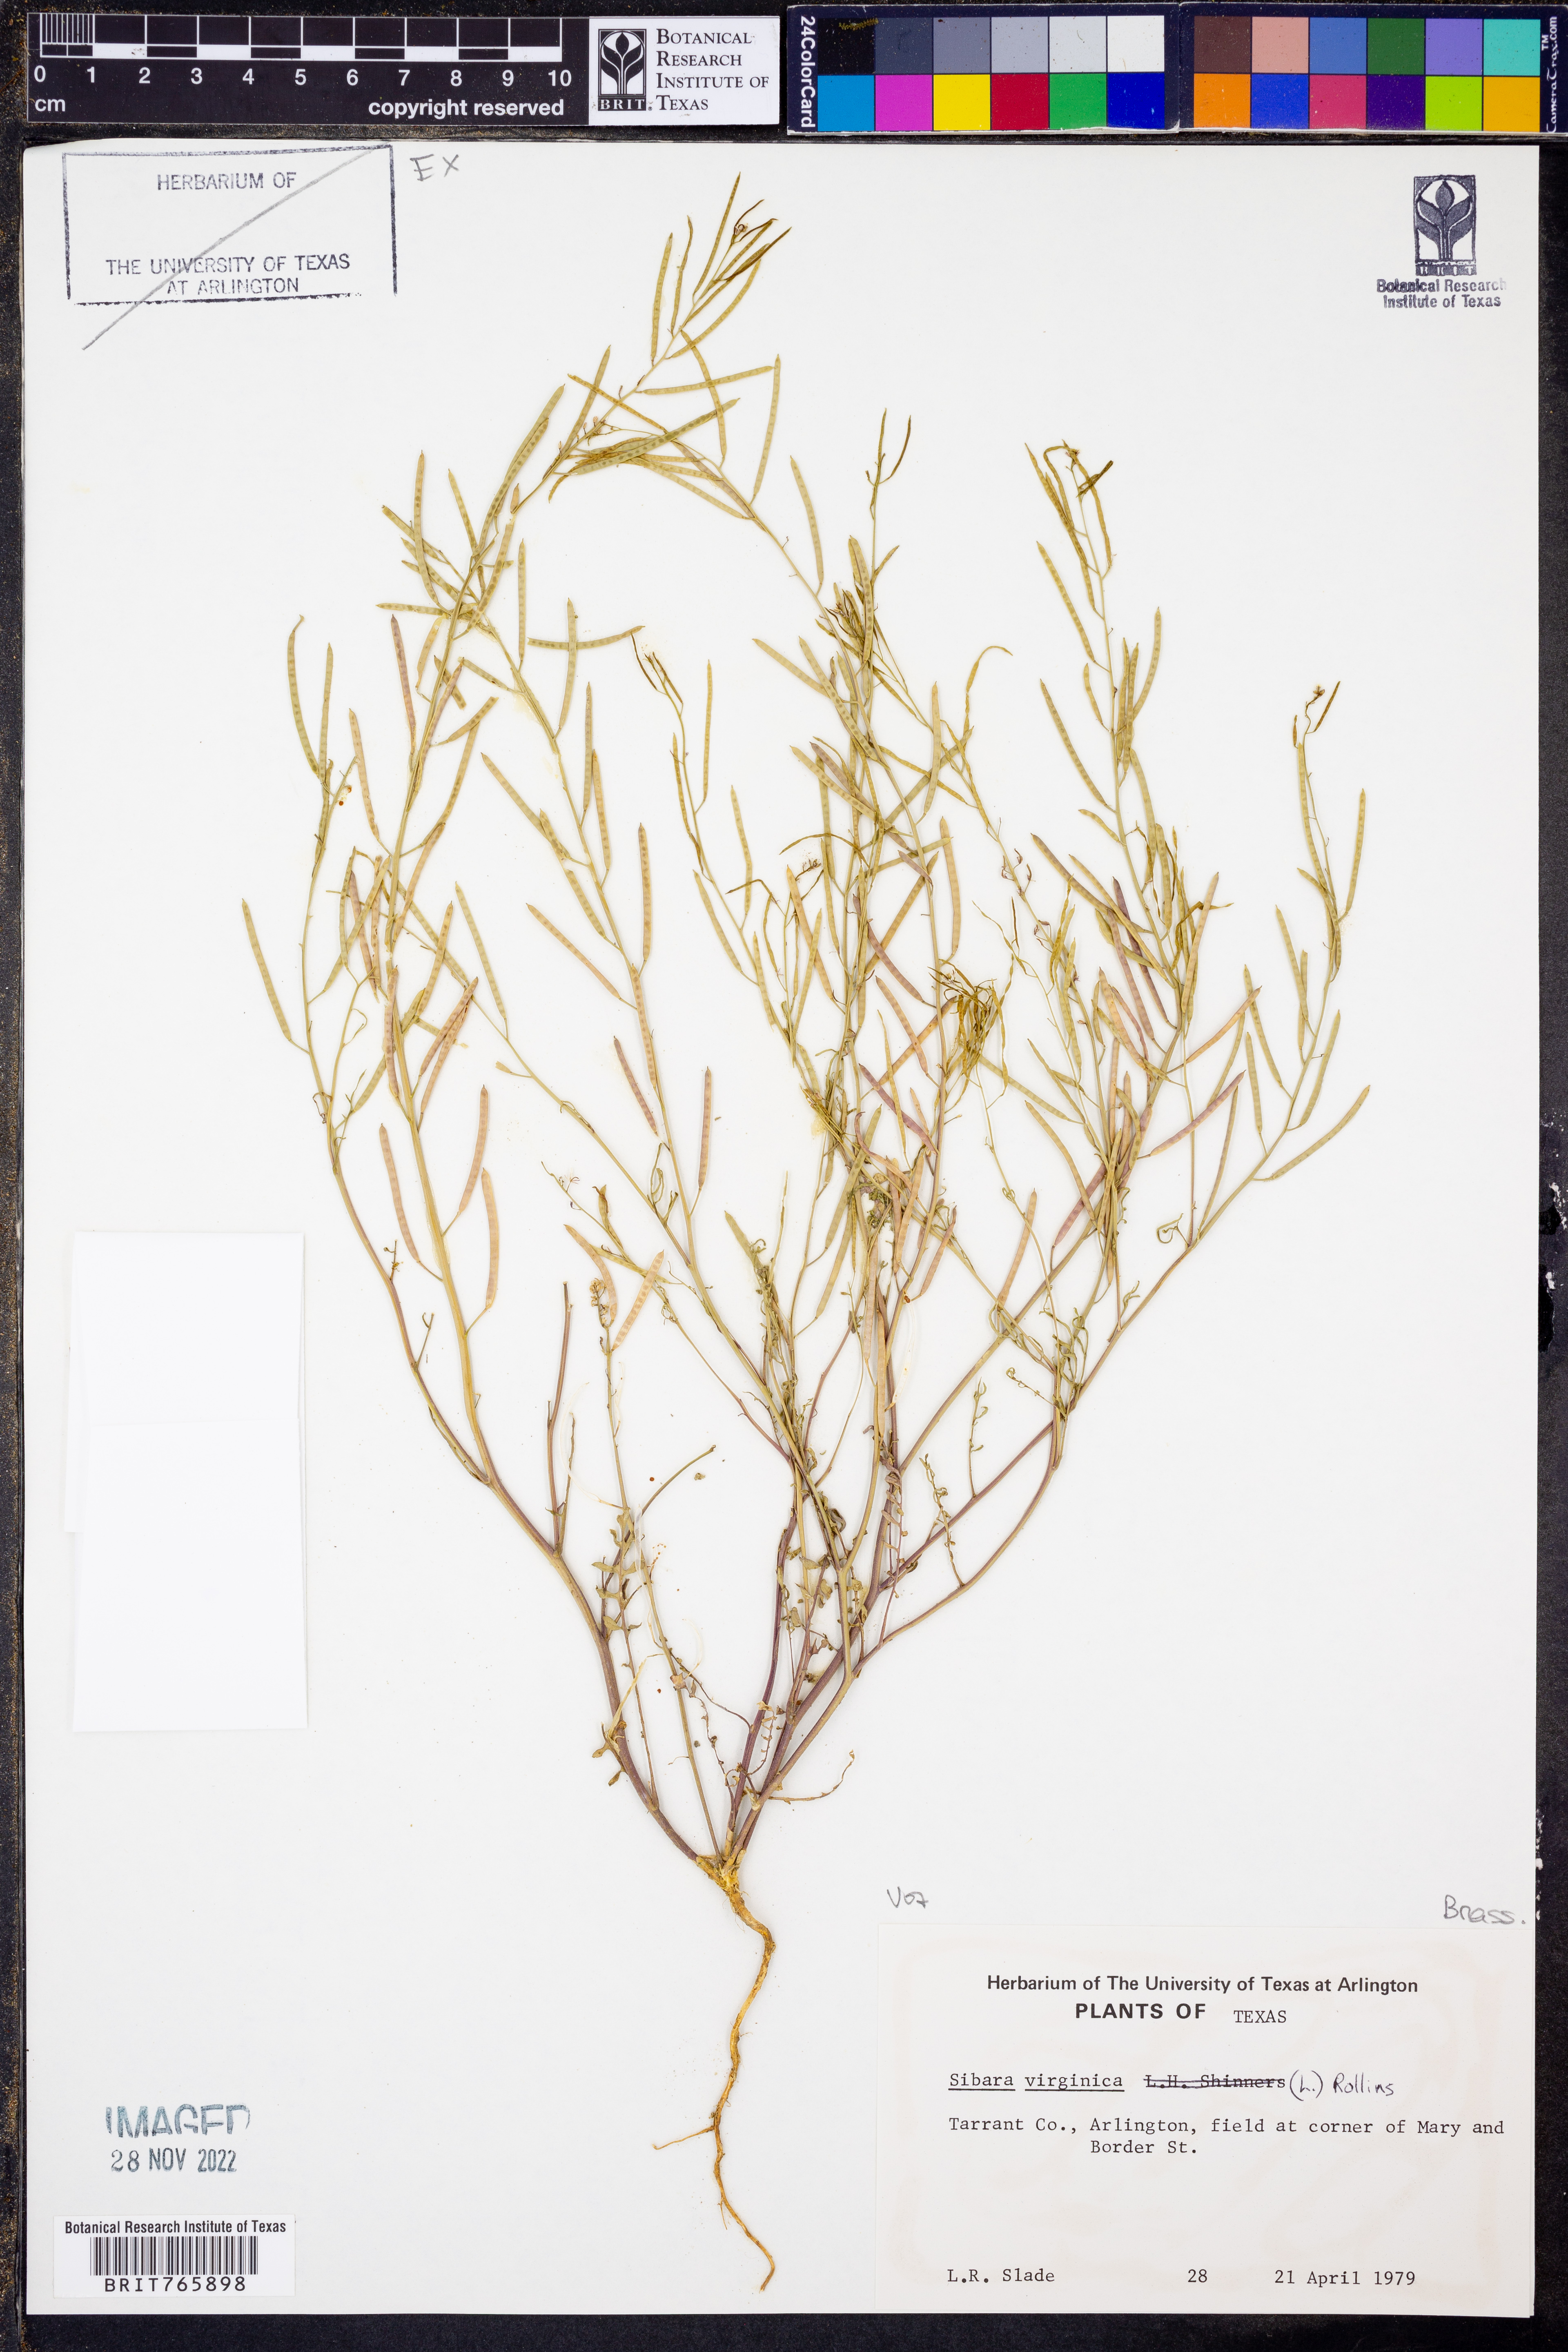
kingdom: Plantae
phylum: Tracheophyta
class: Magnoliopsida
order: Brassicales
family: Brassicaceae
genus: Planodes
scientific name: Planodes virginicum
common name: Virginia cress
